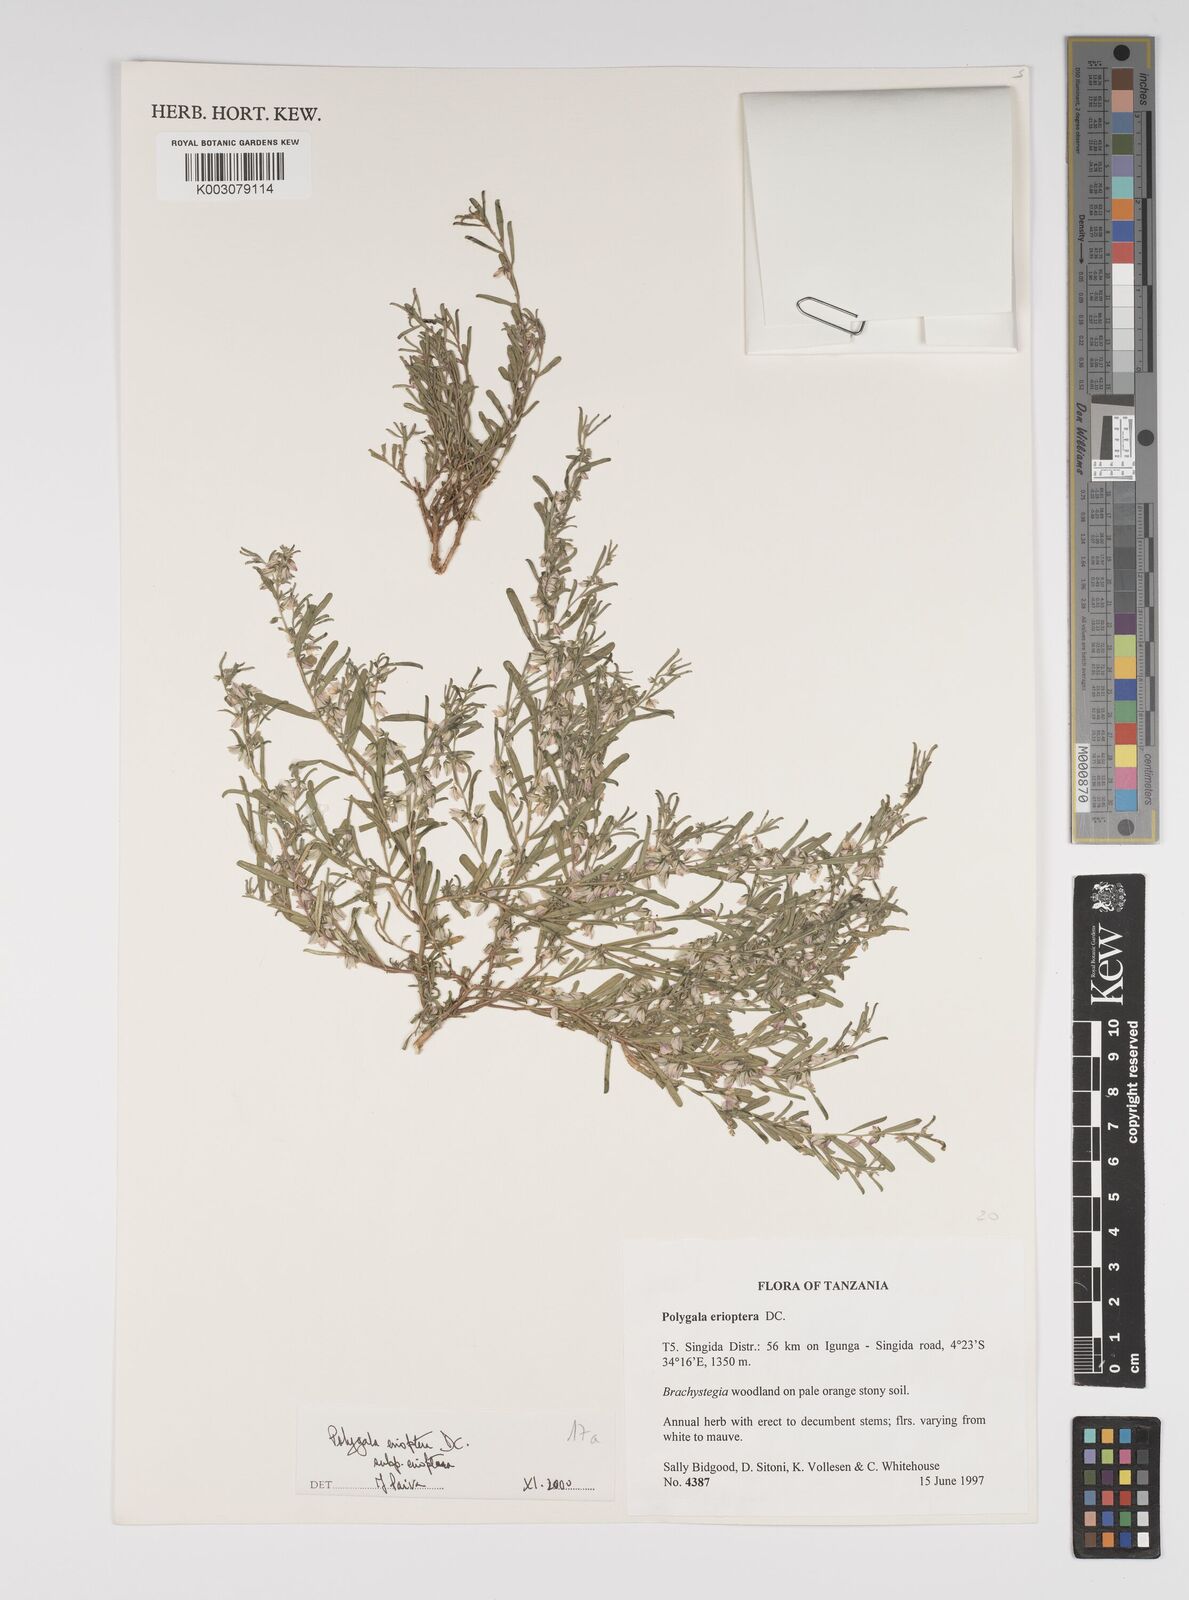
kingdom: Plantae
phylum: Tracheophyta
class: Magnoliopsida
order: Fabales
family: Polygalaceae
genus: Polygala
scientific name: Polygala erioptera
